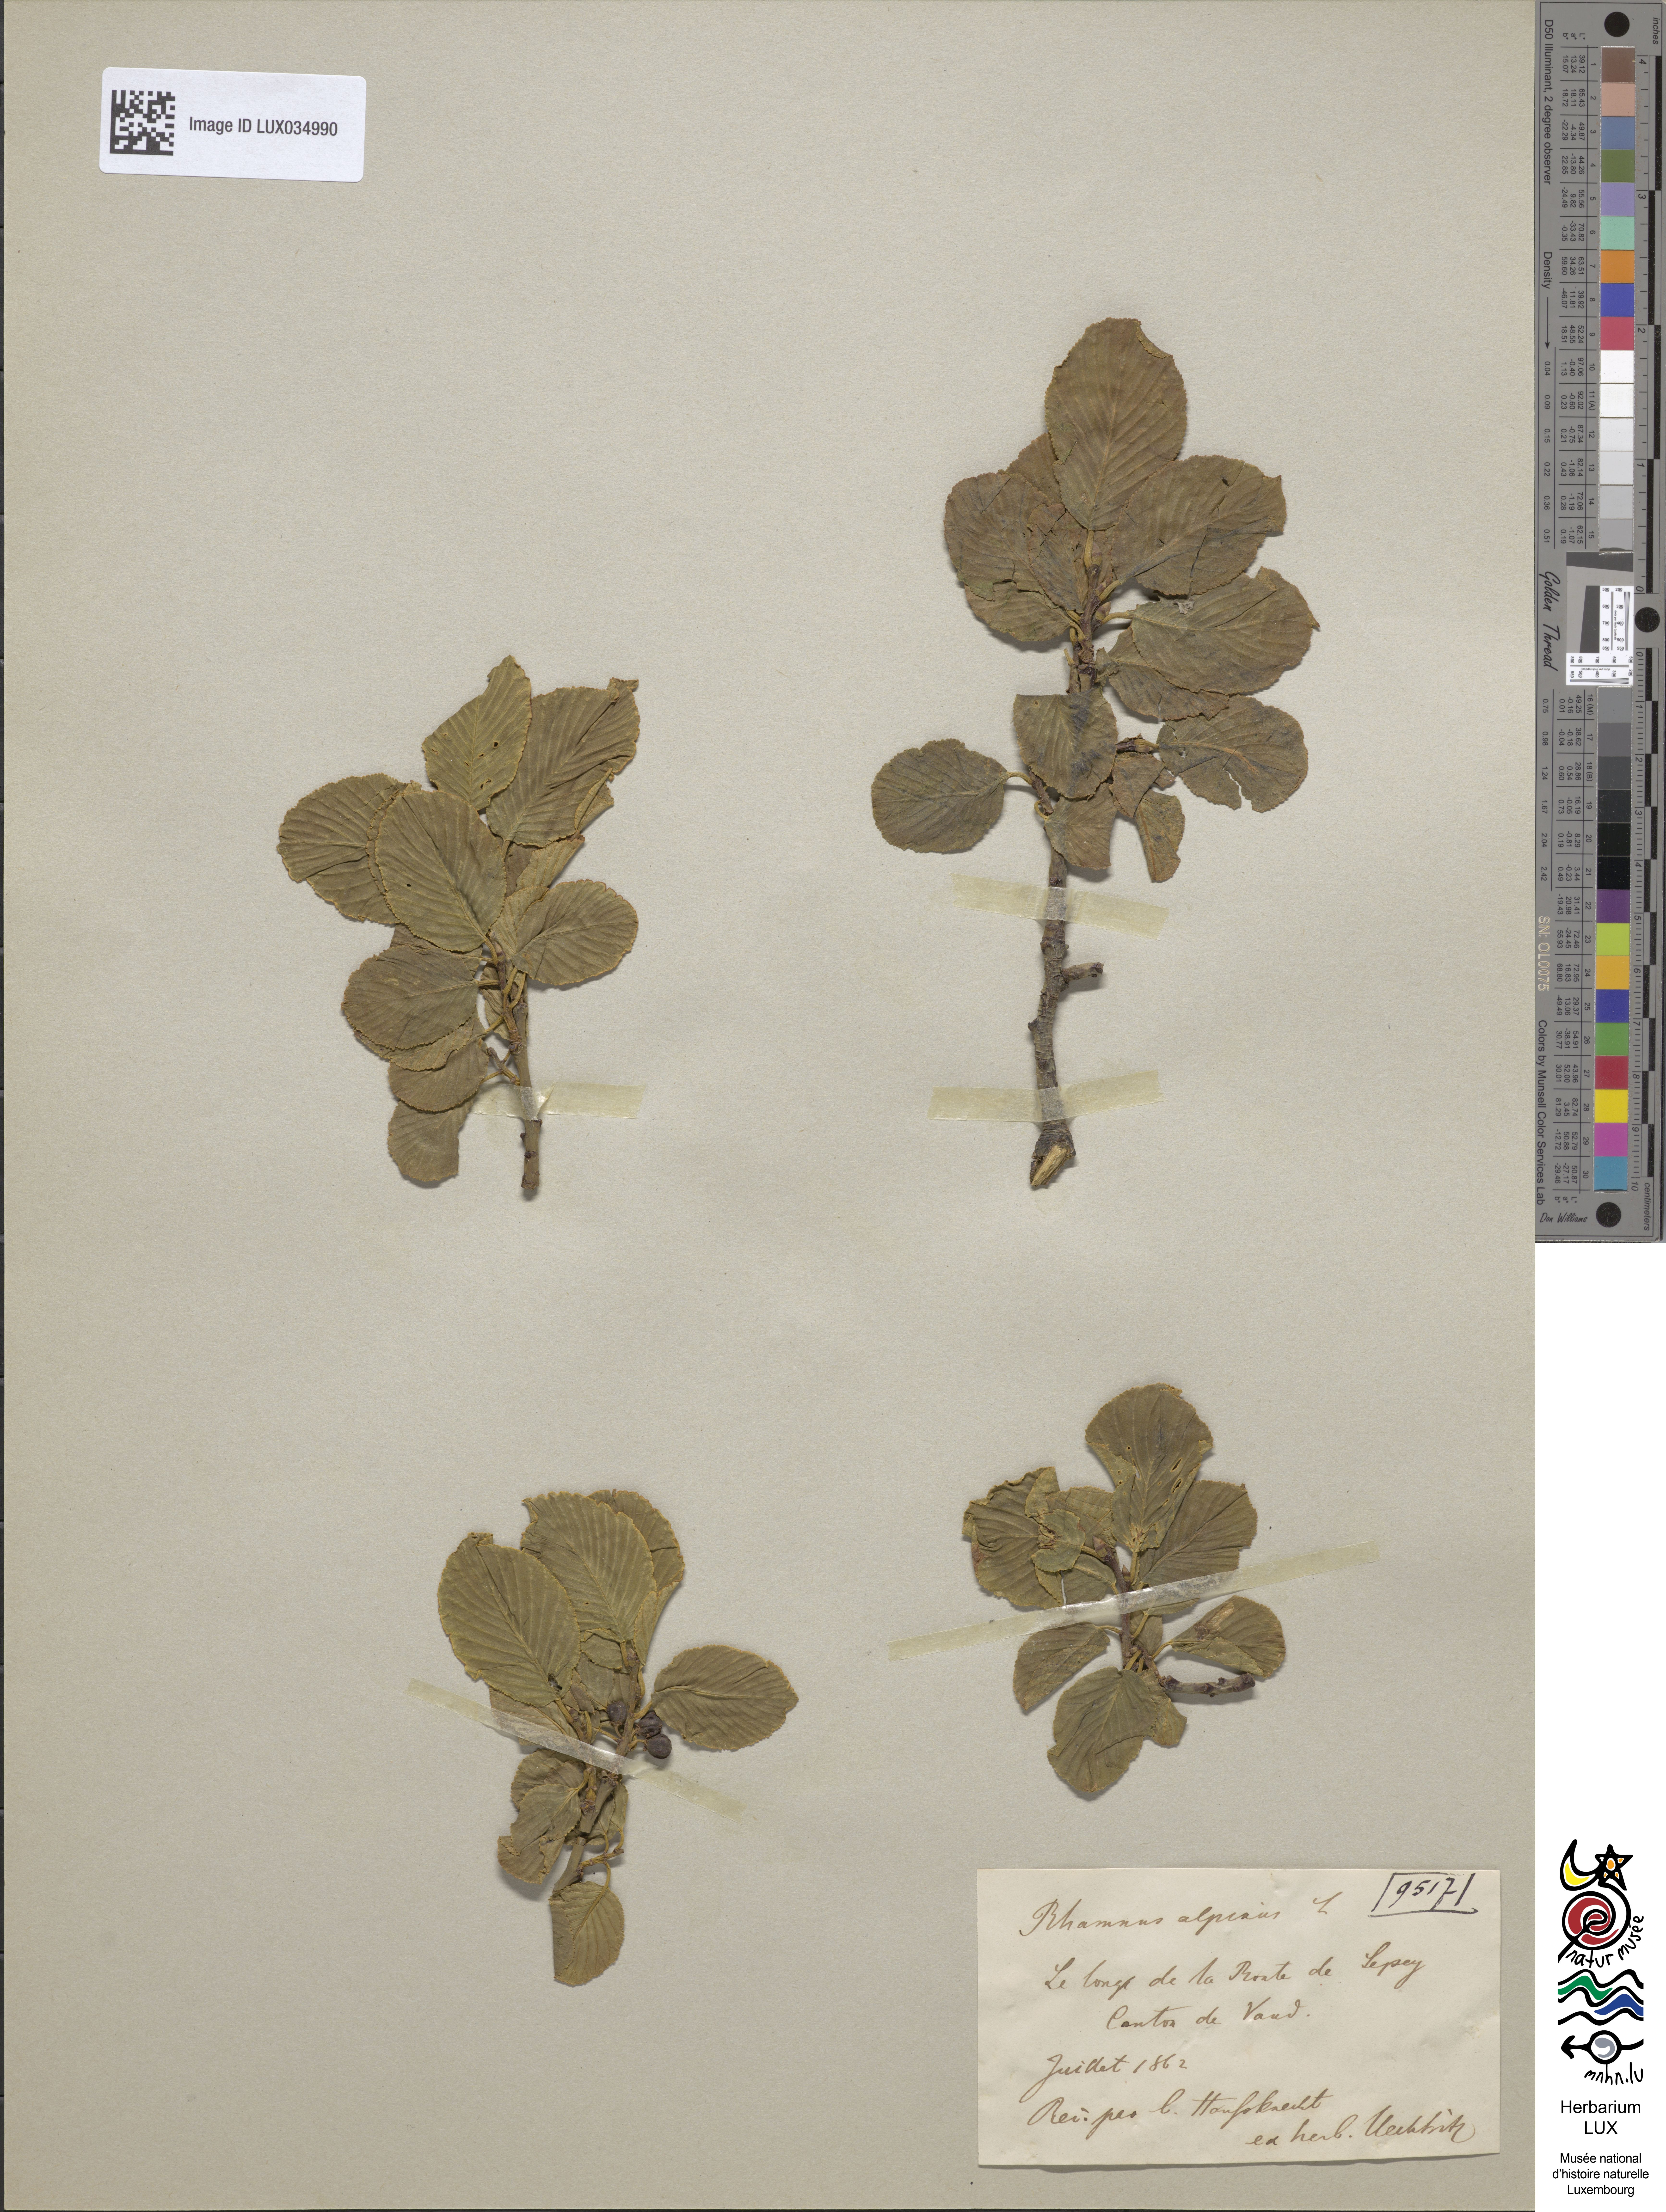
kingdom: Plantae
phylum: Tracheophyta
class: Magnoliopsida
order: Rosales
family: Rhamnaceae
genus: Atadinus
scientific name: Atadinus alpinus
